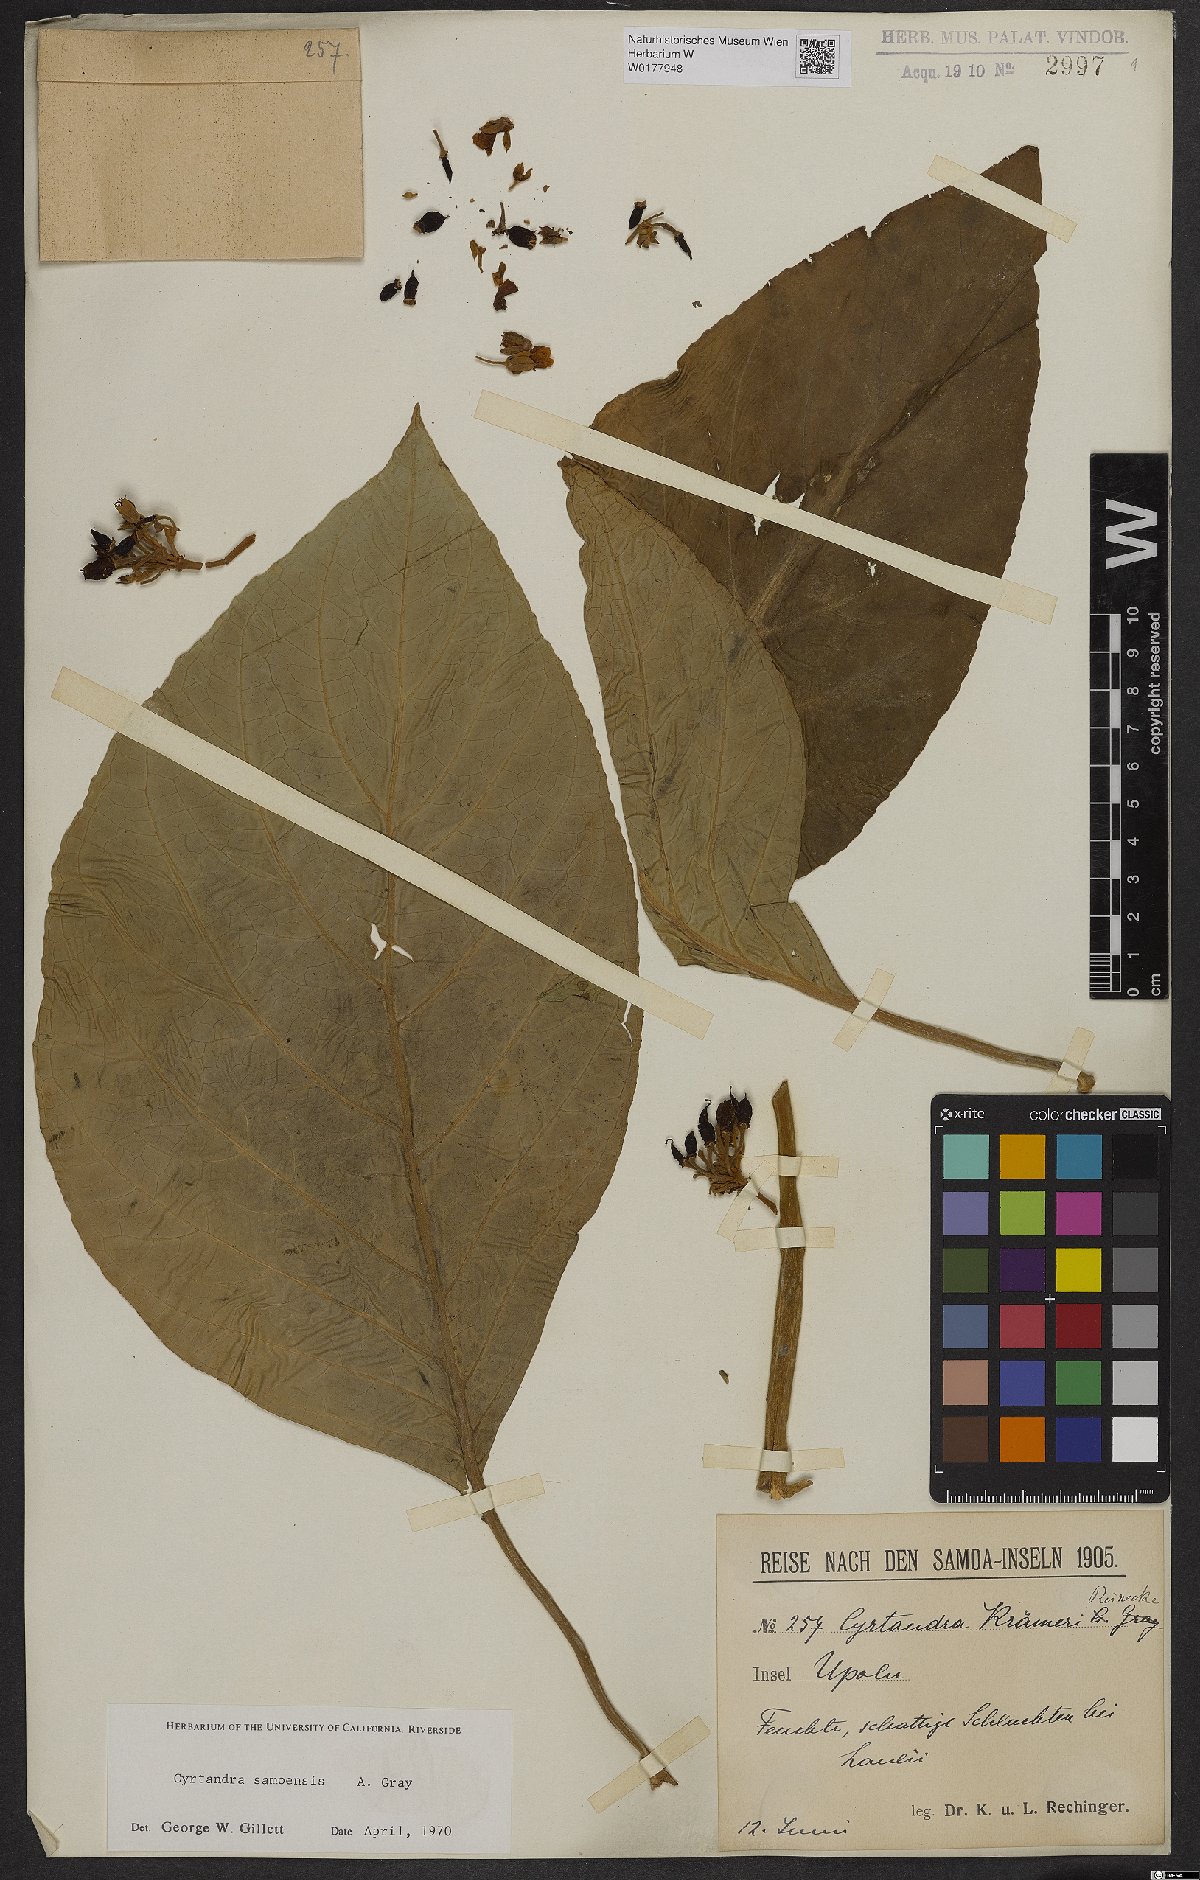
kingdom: Plantae
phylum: Tracheophyta
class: Magnoliopsida
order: Lamiales
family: Gesneriaceae
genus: Cyrtandra
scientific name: Cyrtandra samoensis
